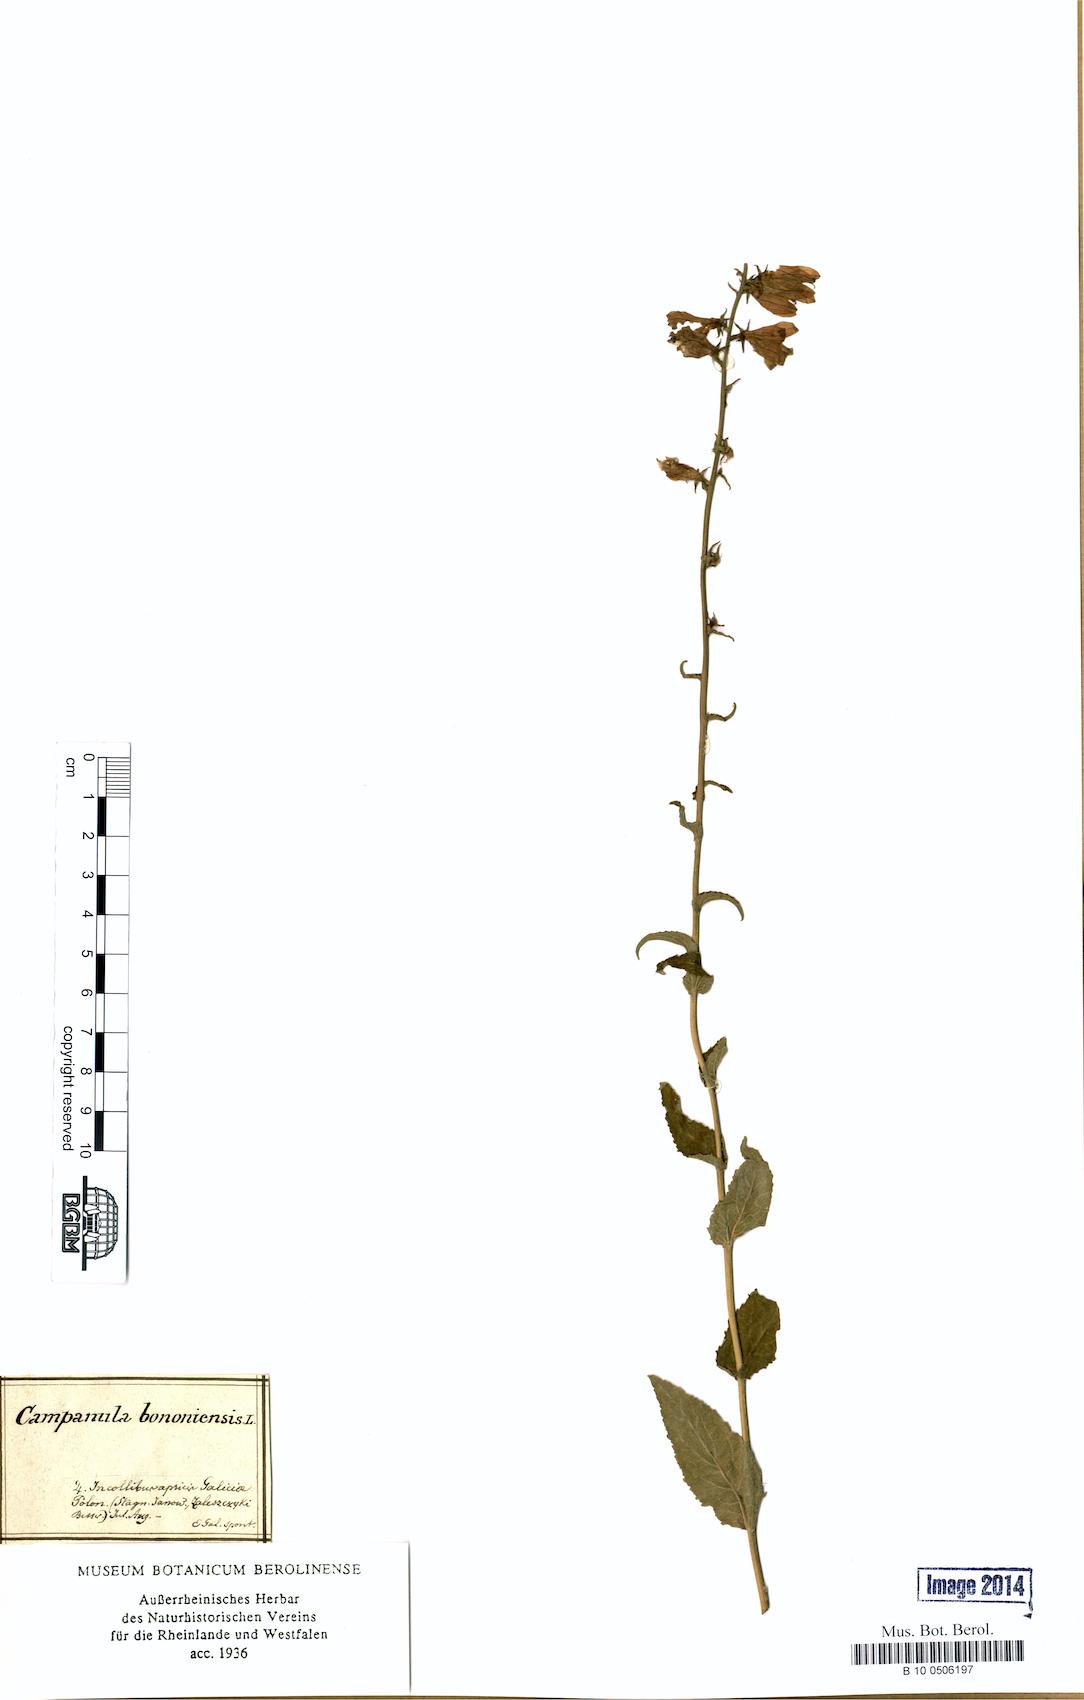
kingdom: Plantae
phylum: Tracheophyta
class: Magnoliopsida
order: Asterales
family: Campanulaceae
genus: Campanula
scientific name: Campanula bononiensis
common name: Pale bellflower
